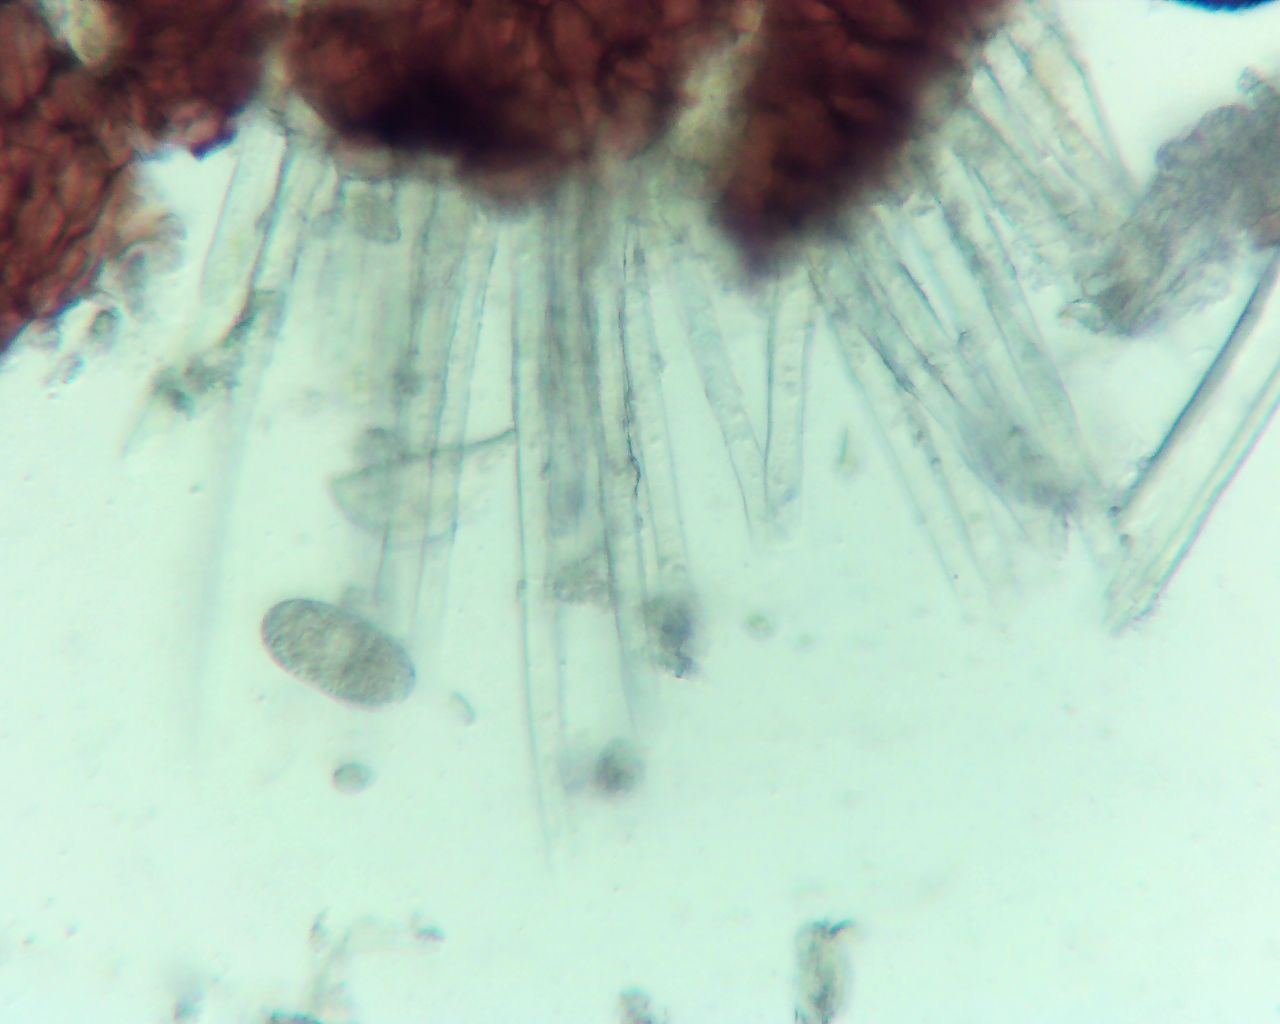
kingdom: Fungi
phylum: Ascomycota
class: Leotiomycetes
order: Helotiales
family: Erysiphaceae
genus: Erysiphe
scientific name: Erysiphe adunca
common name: pile-meldug
